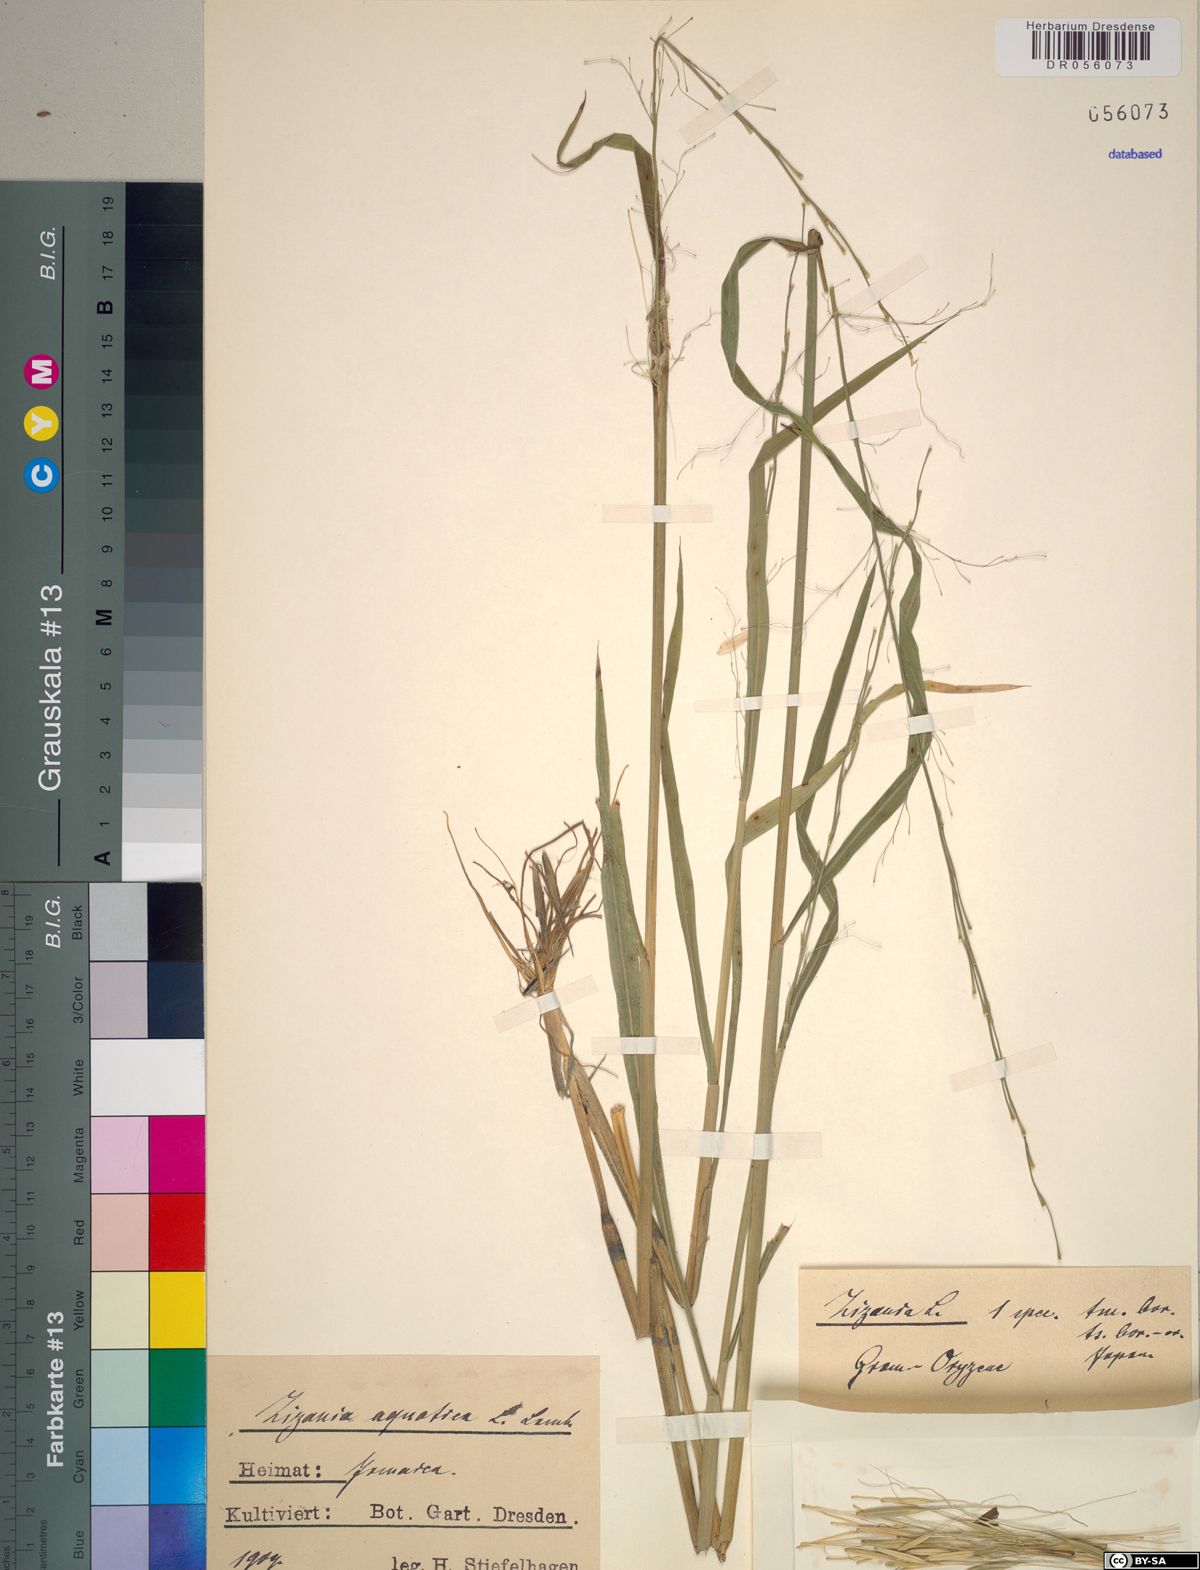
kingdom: Plantae
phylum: Tracheophyta
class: Liliopsida
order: Poales
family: Poaceae
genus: Zizania
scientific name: Zizania aquatica
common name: Annual wildrice
